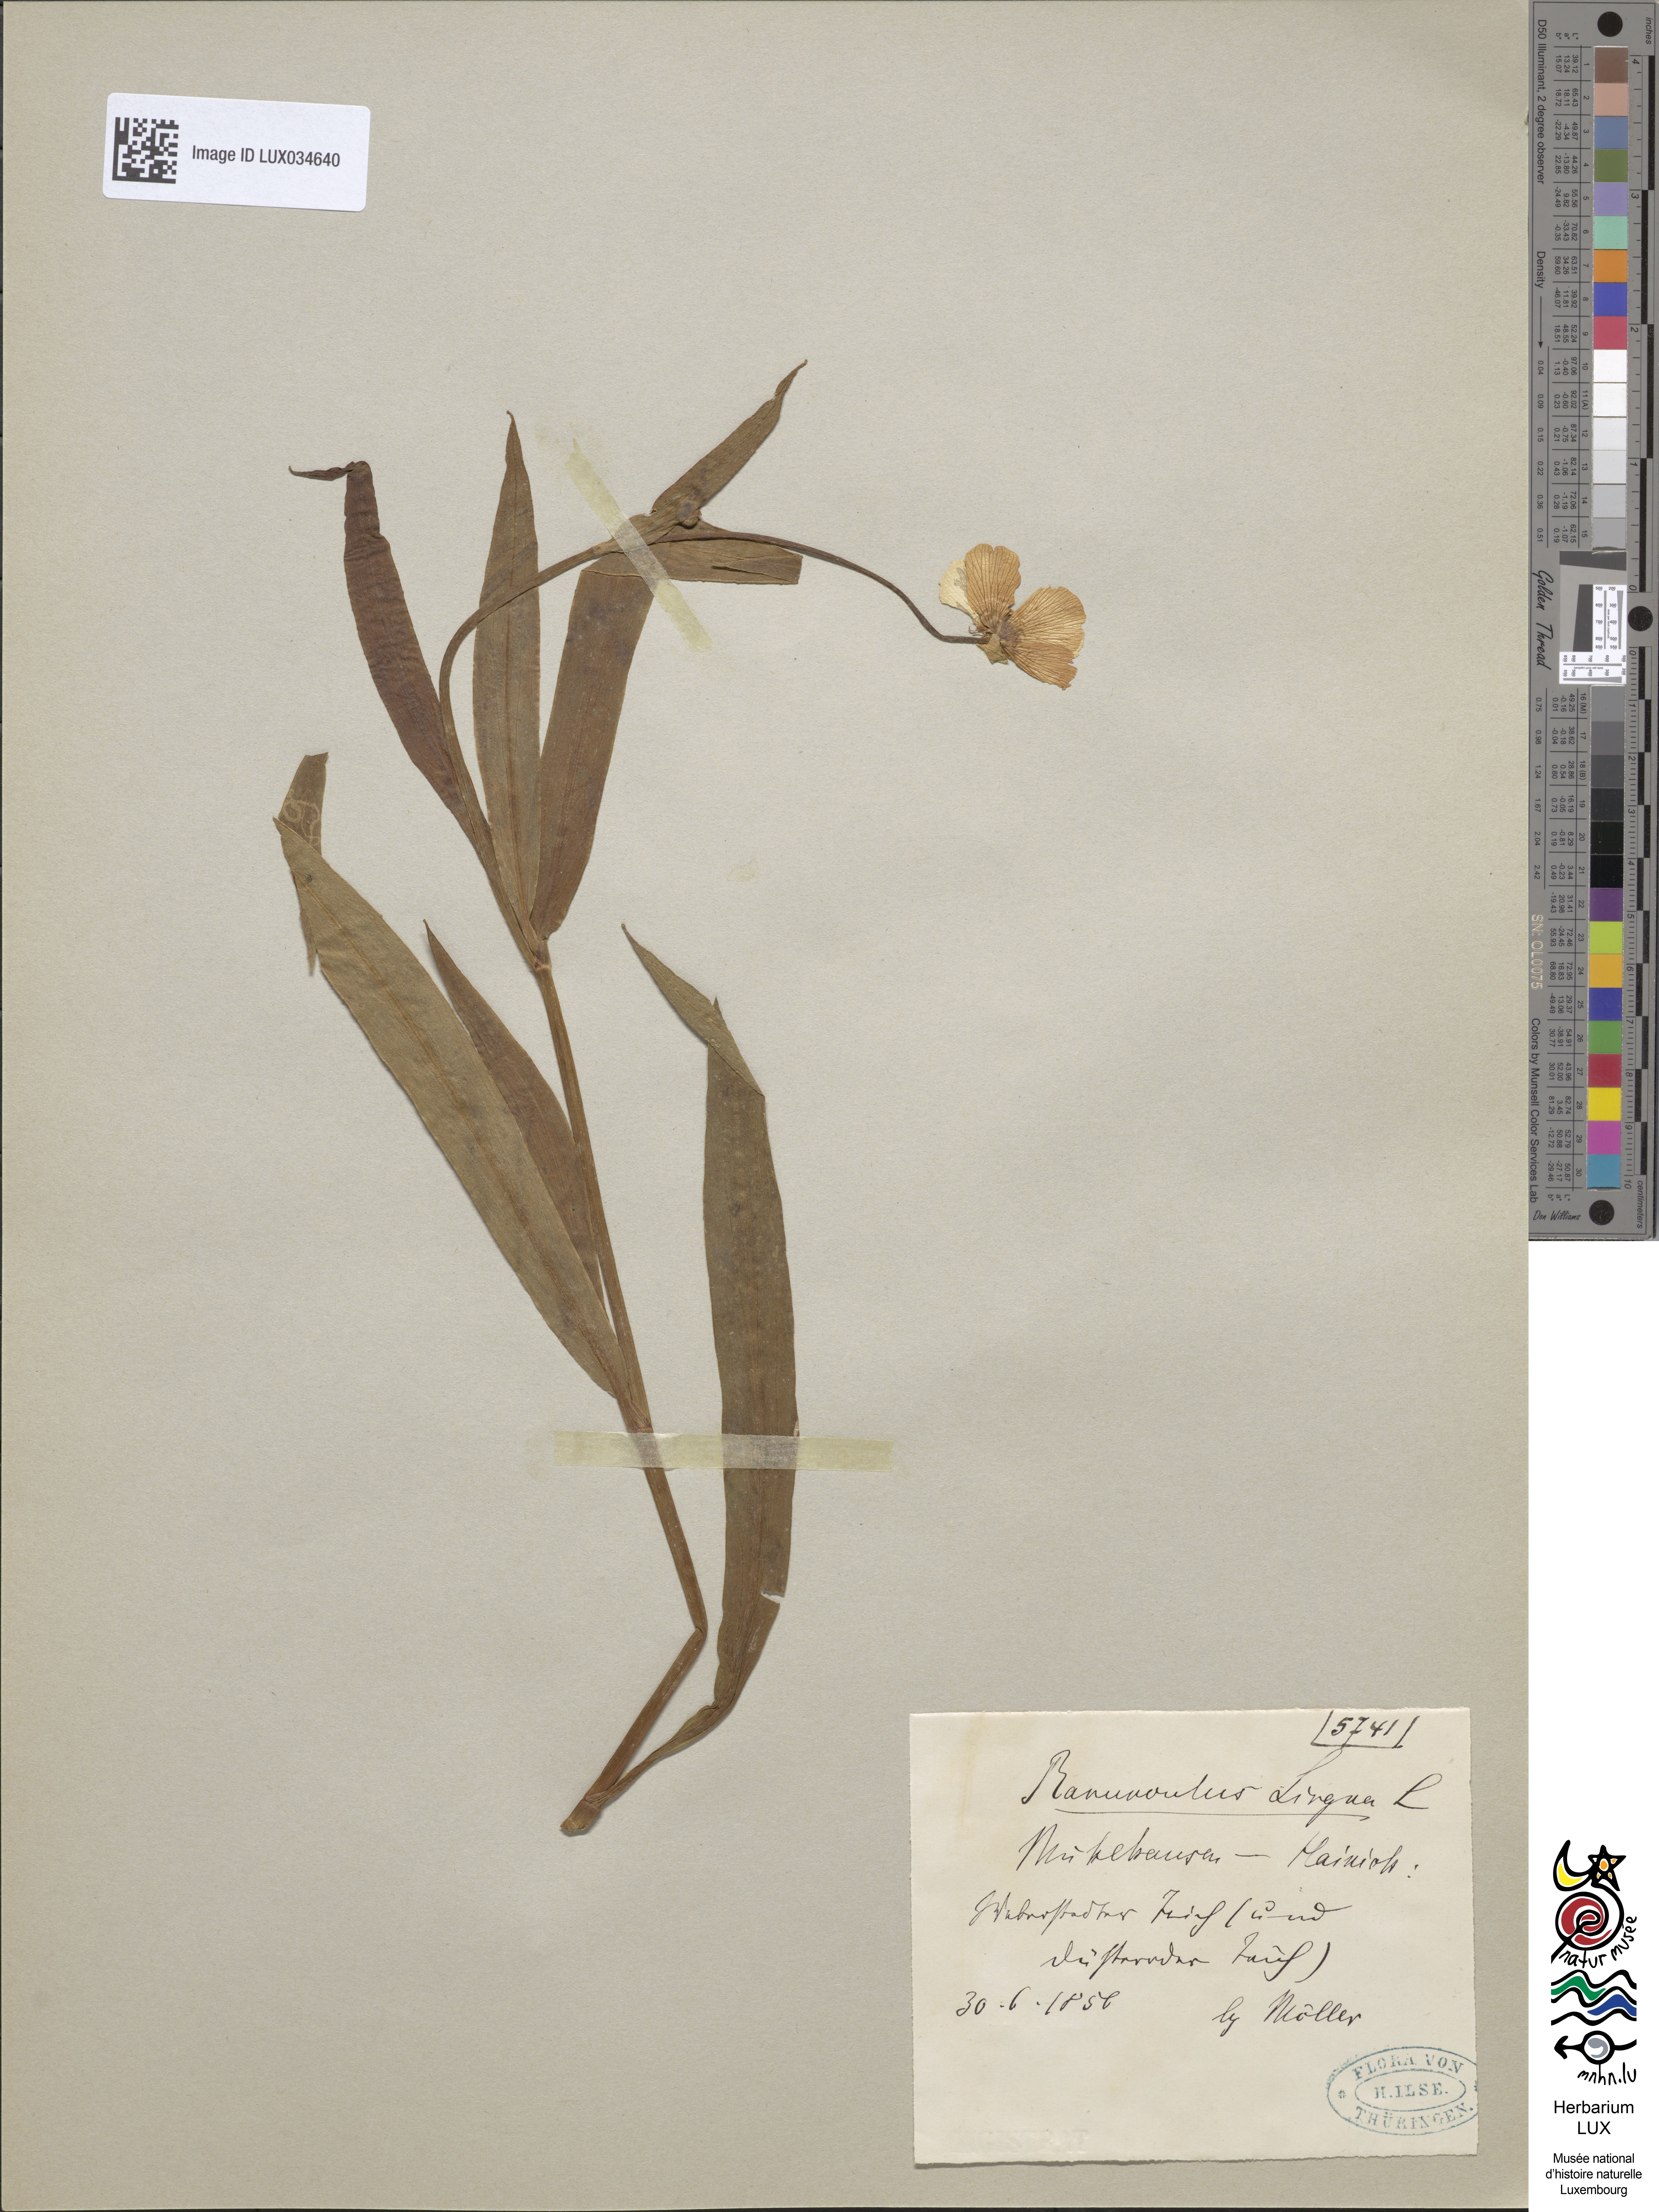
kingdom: Plantae
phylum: Tracheophyta
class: Magnoliopsida
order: Ranunculales
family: Ranunculaceae
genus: Ranunculus
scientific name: Ranunculus lingua
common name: Greater spearwort
